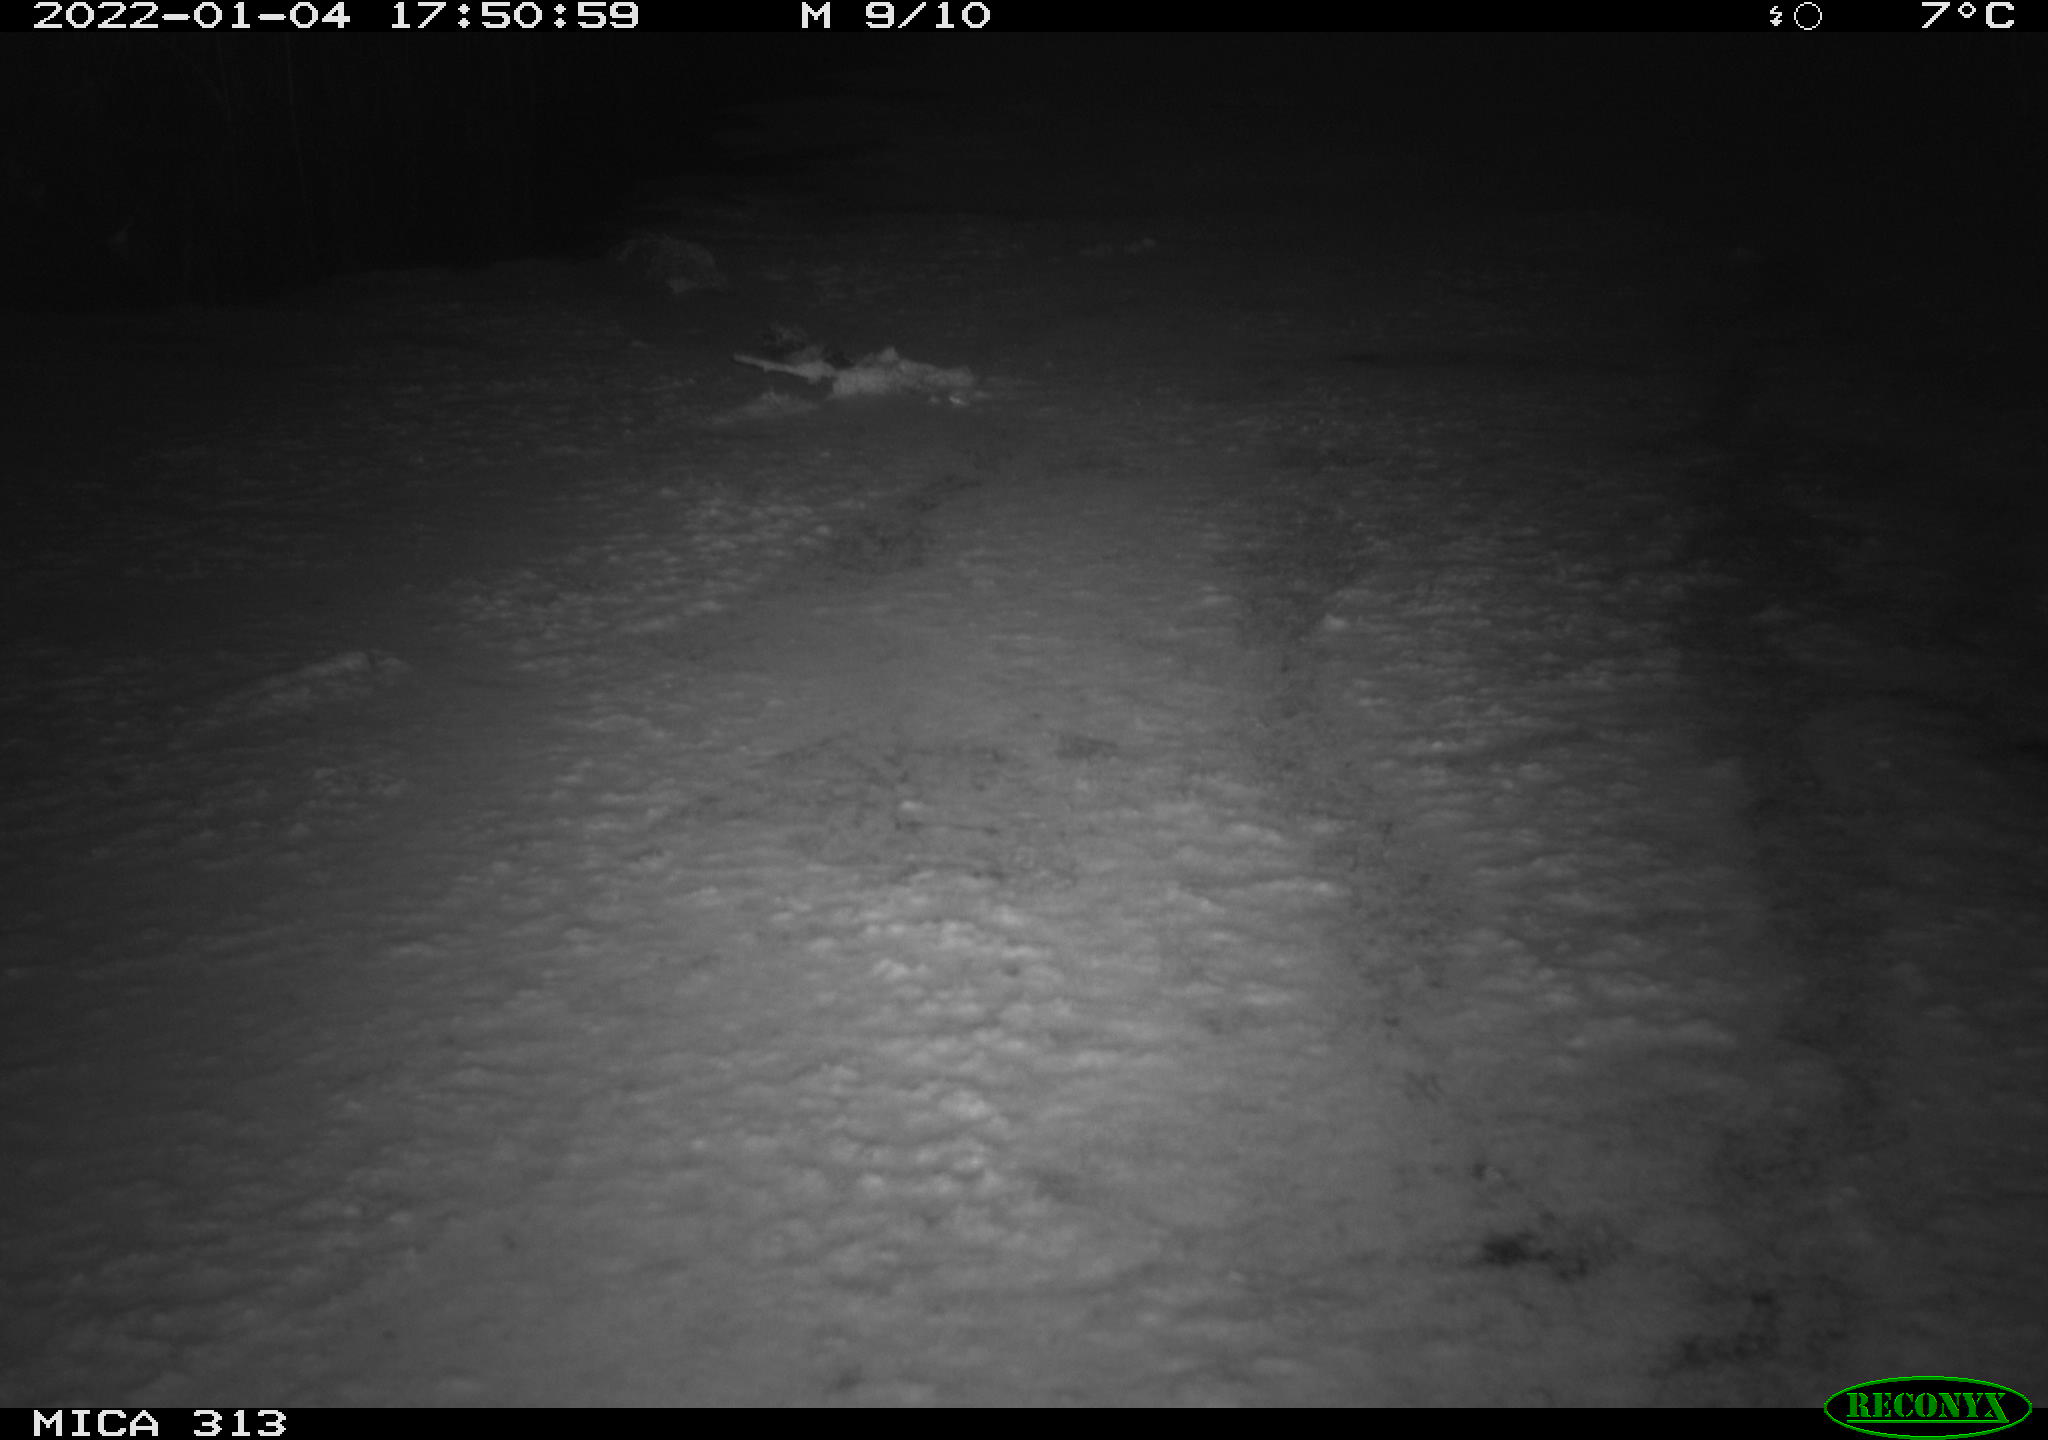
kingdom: Animalia
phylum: Chordata
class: Aves
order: Gruiformes
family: Rallidae
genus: Fulica
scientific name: Fulica atra
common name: Eurasian coot
